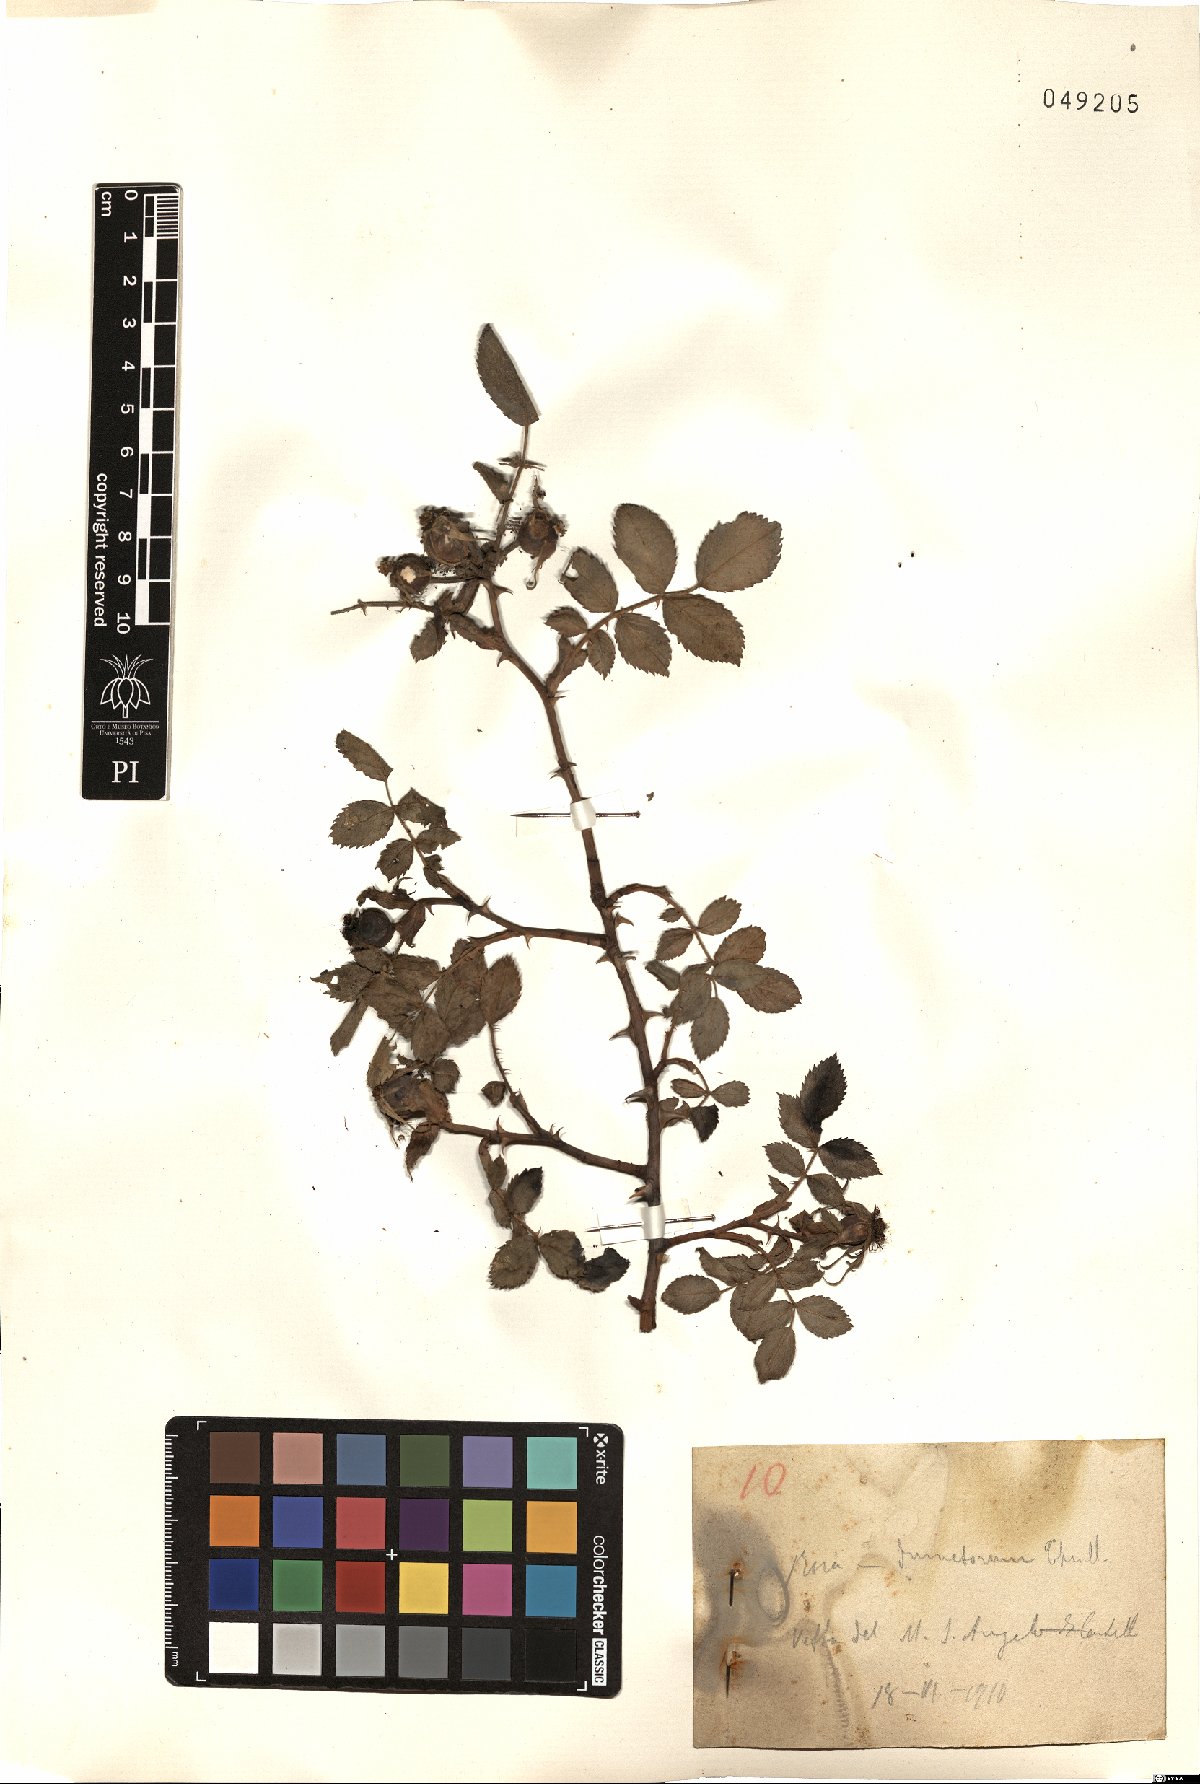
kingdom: Plantae
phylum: Tracheophyta
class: Magnoliopsida
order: Rosales
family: Rosaceae
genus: Rosa
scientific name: Rosa corymbifera
